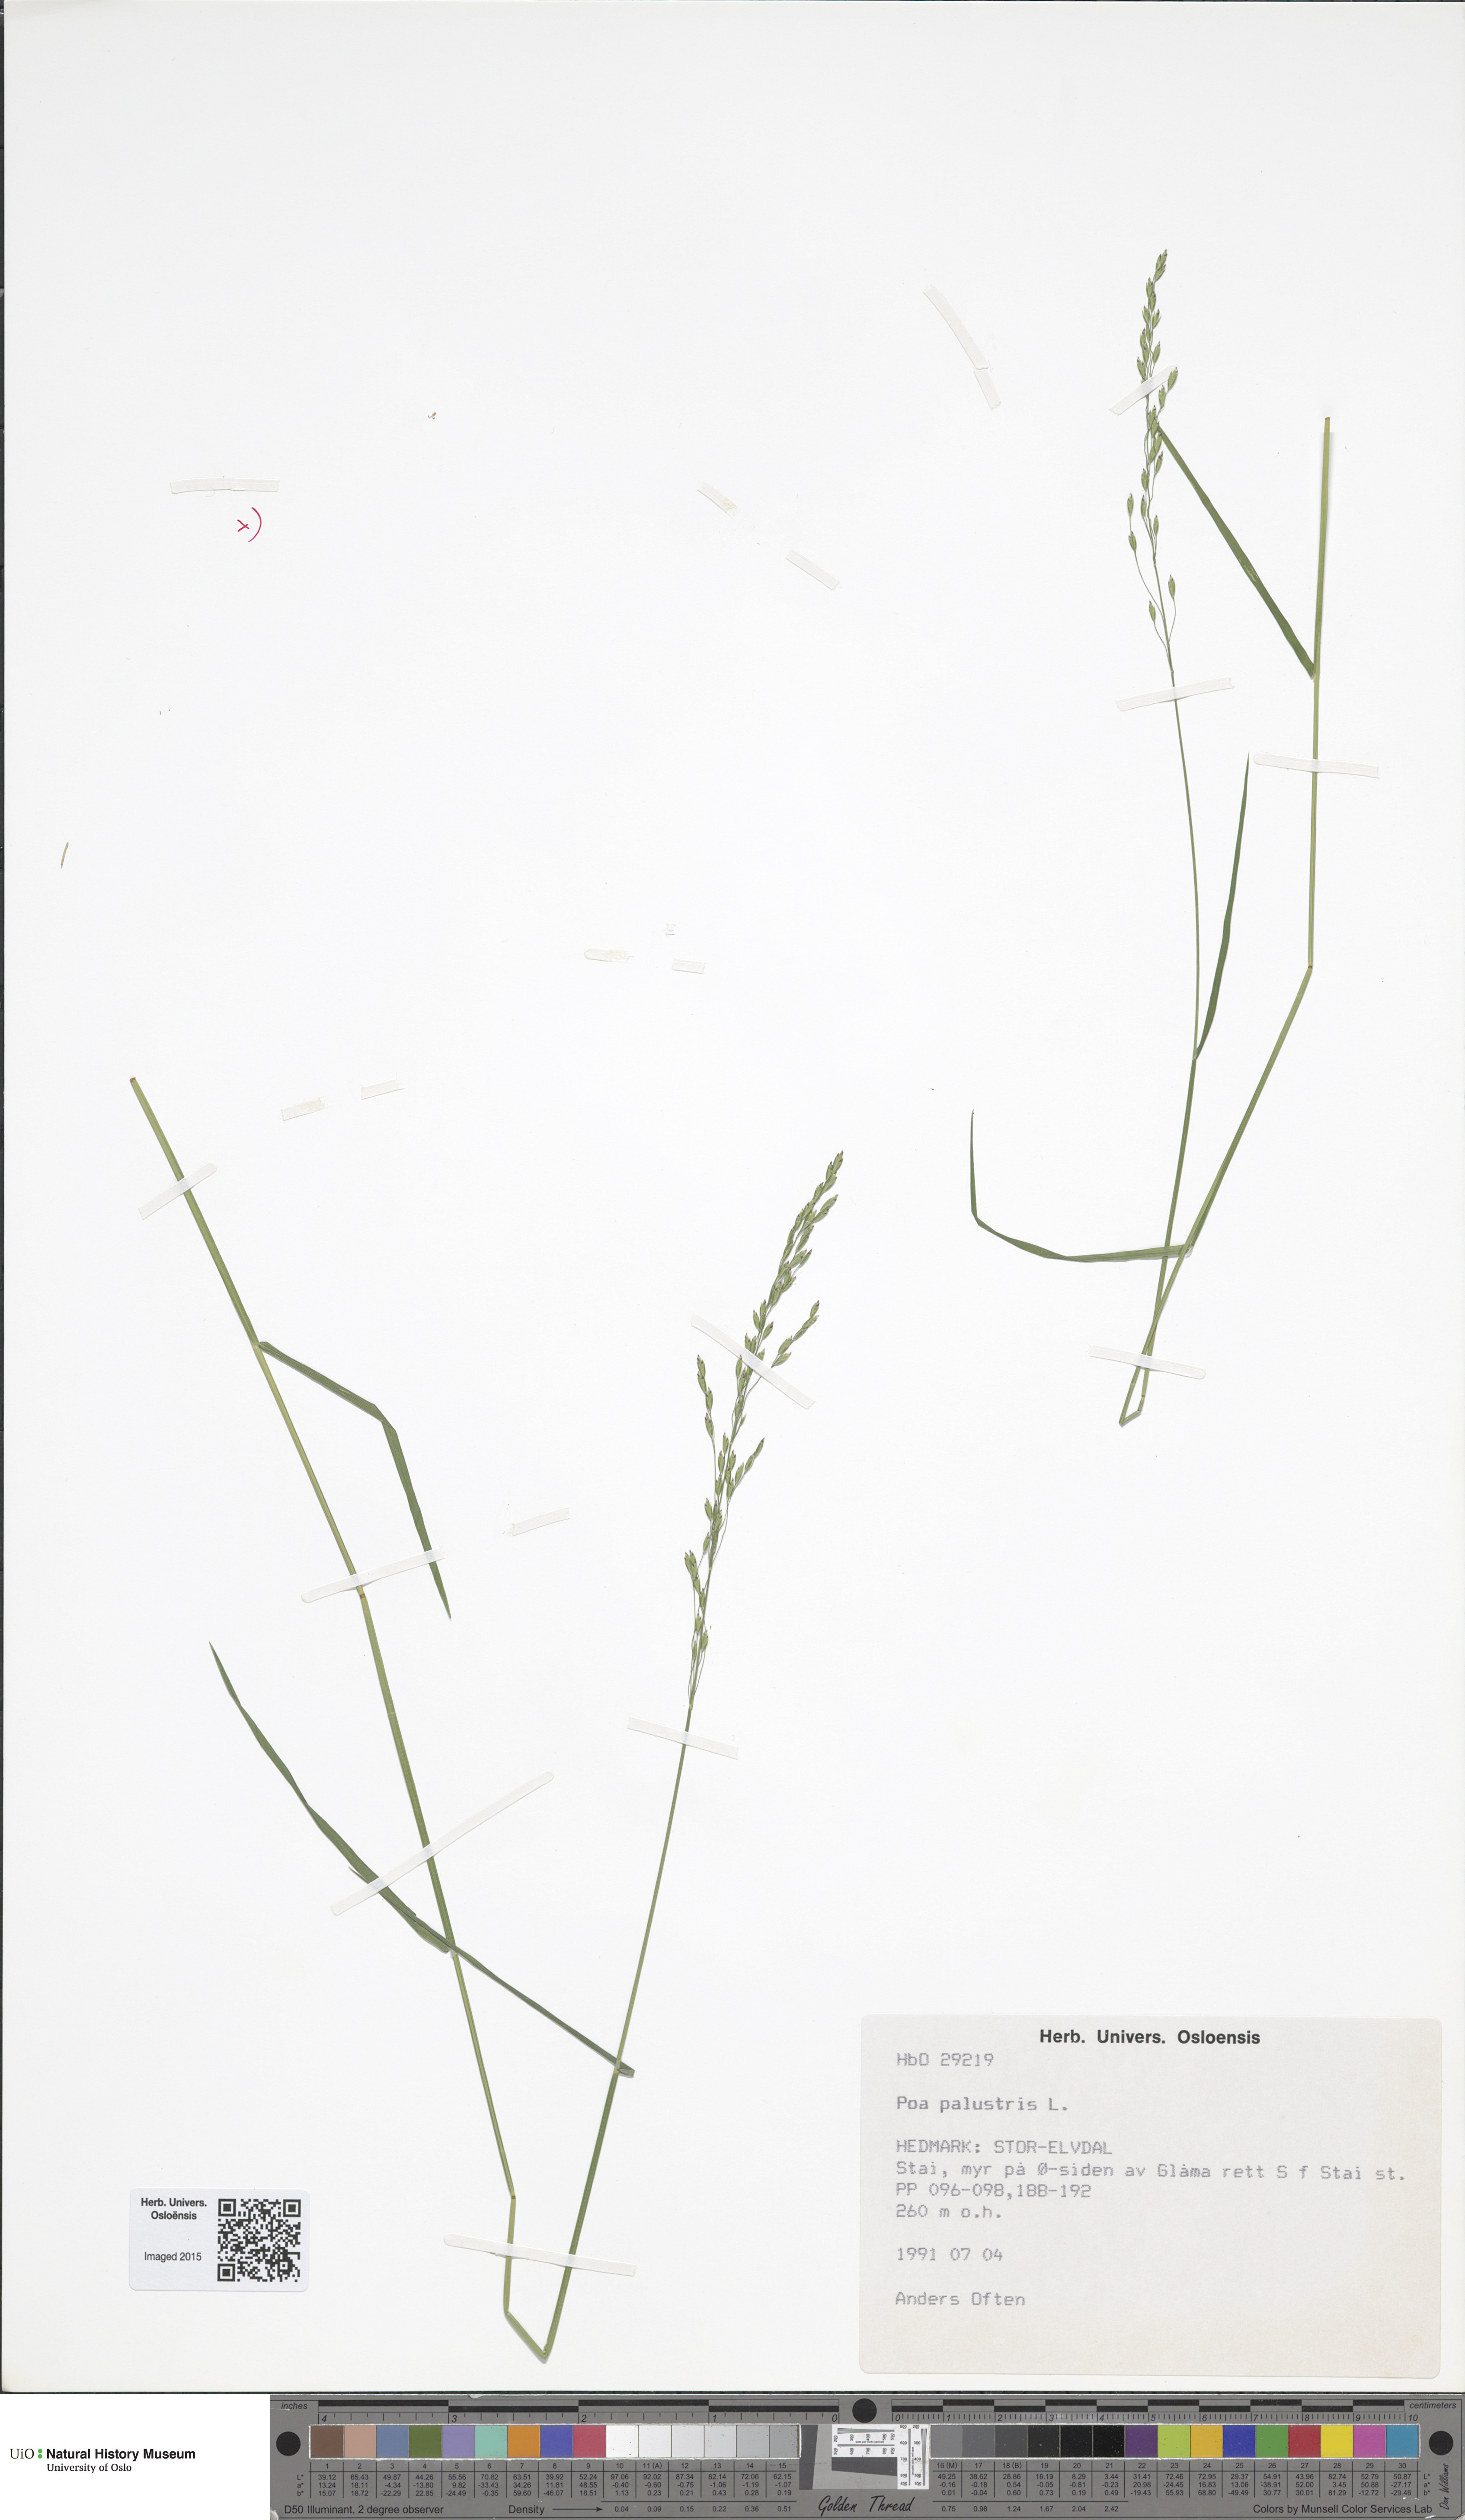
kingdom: Plantae
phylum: Tracheophyta
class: Liliopsida
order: Poales
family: Poaceae
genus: Poa
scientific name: Poa palustris
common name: Swamp meadow-grass
